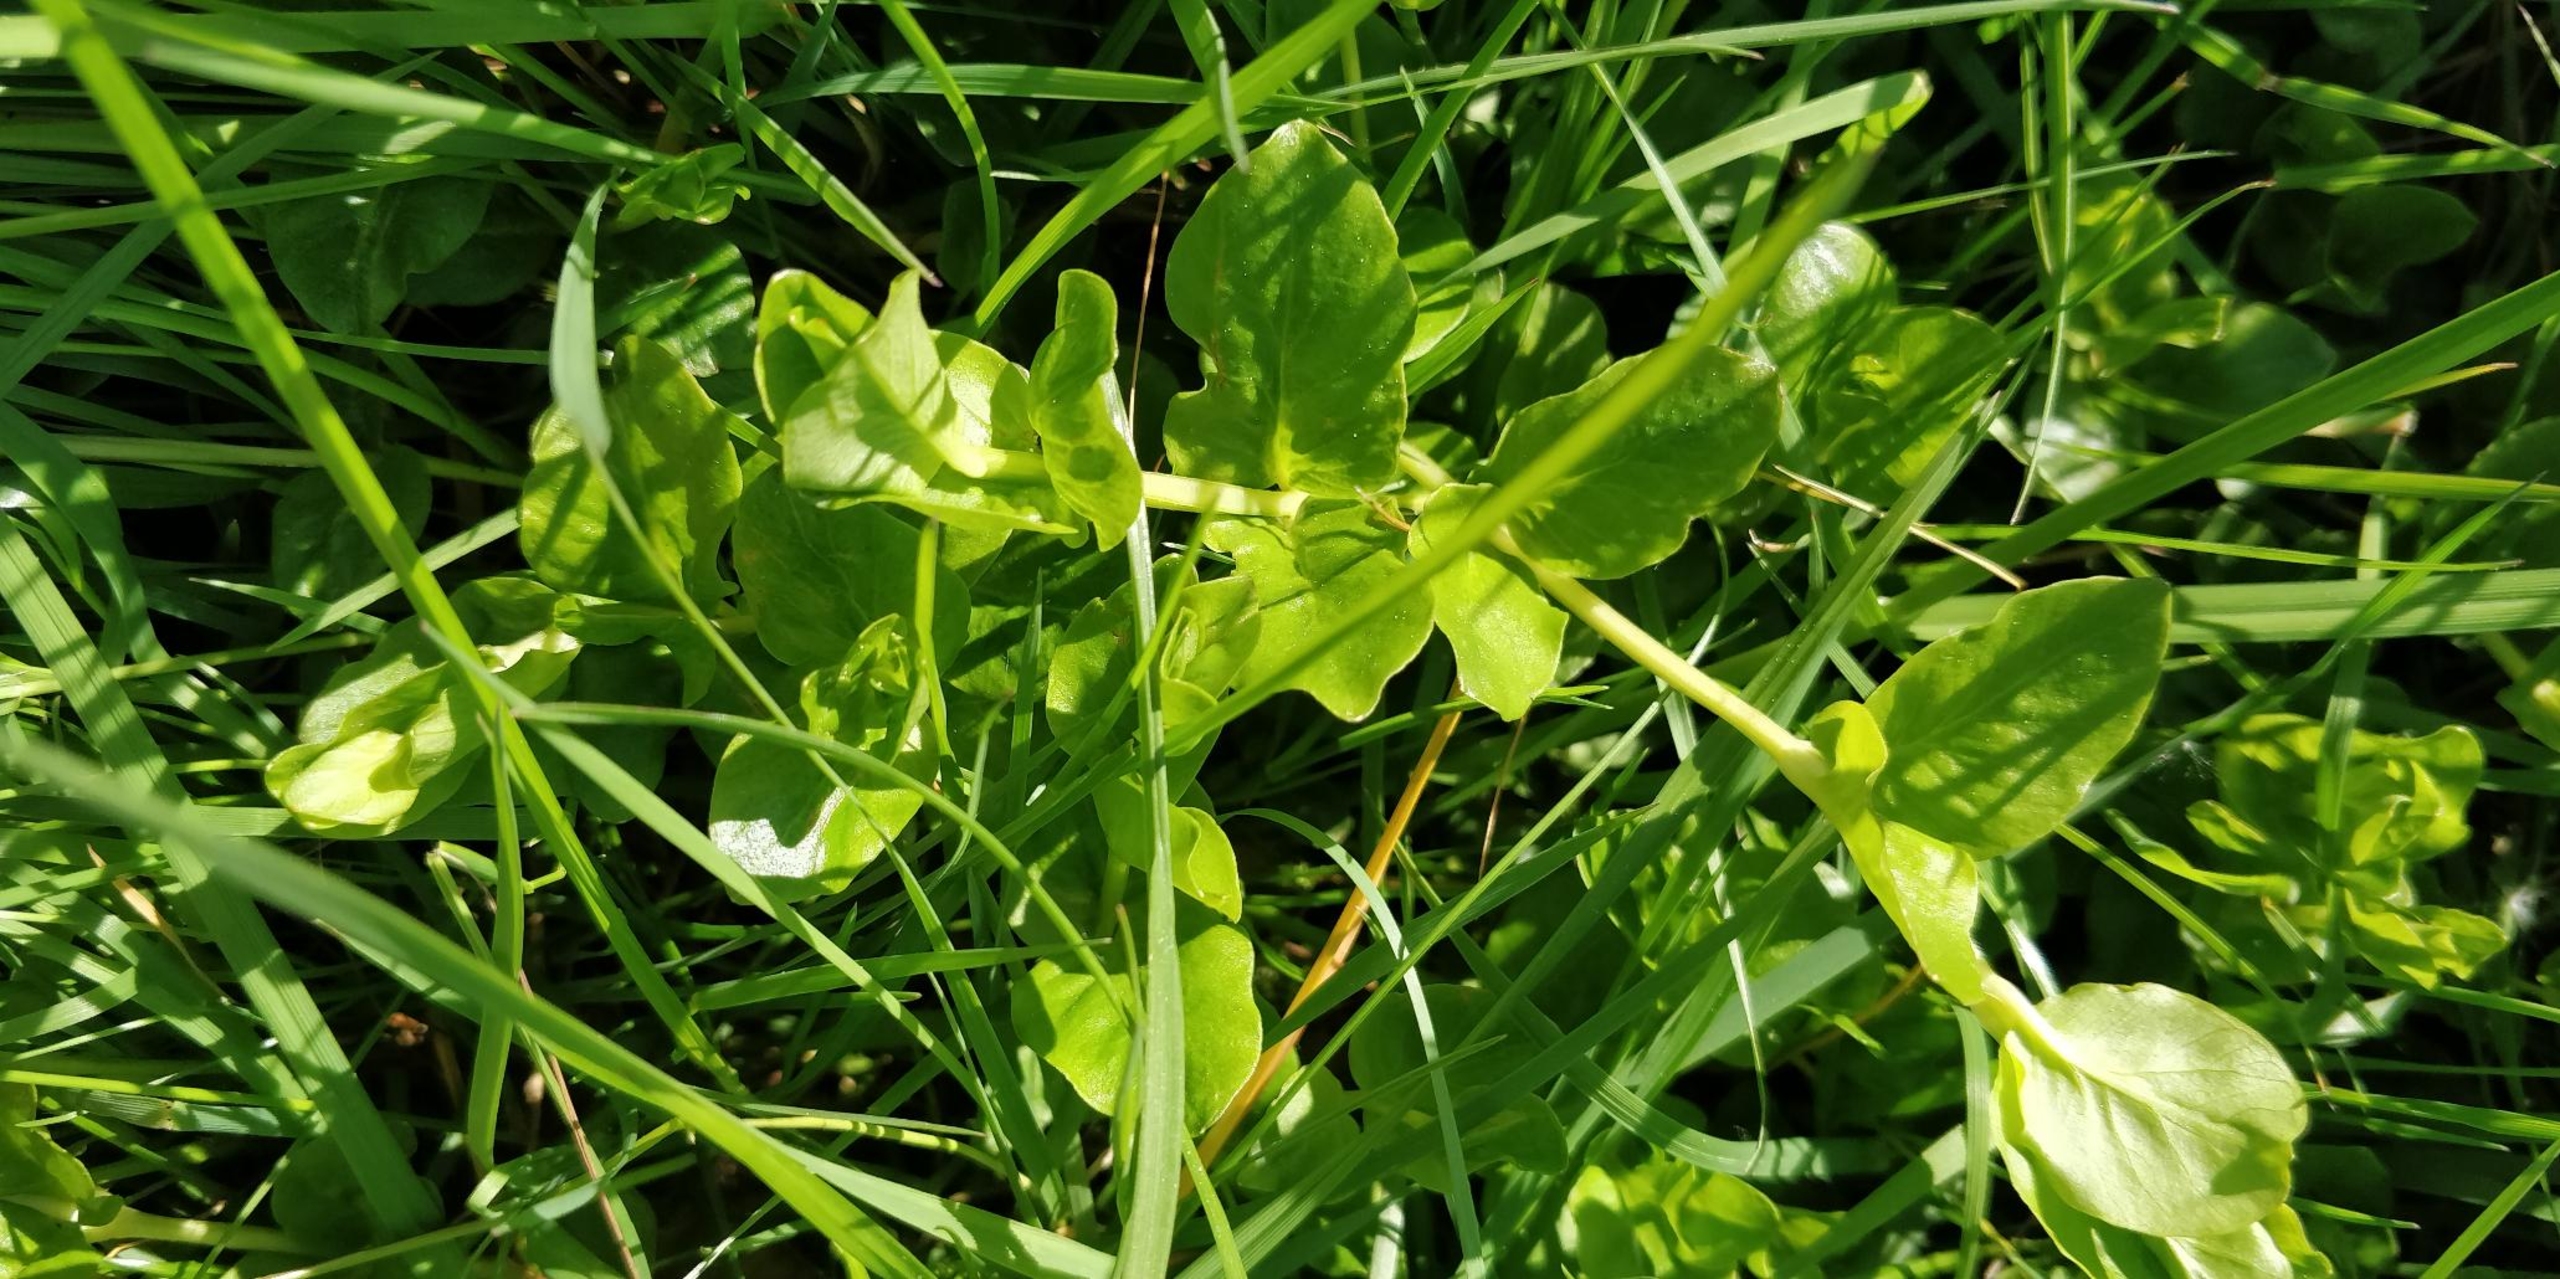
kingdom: Plantae
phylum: Tracheophyta
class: Magnoliopsida
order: Ericales
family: Primulaceae
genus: Lysimachia
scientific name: Lysimachia nummularia
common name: Pengebladet fredløs
